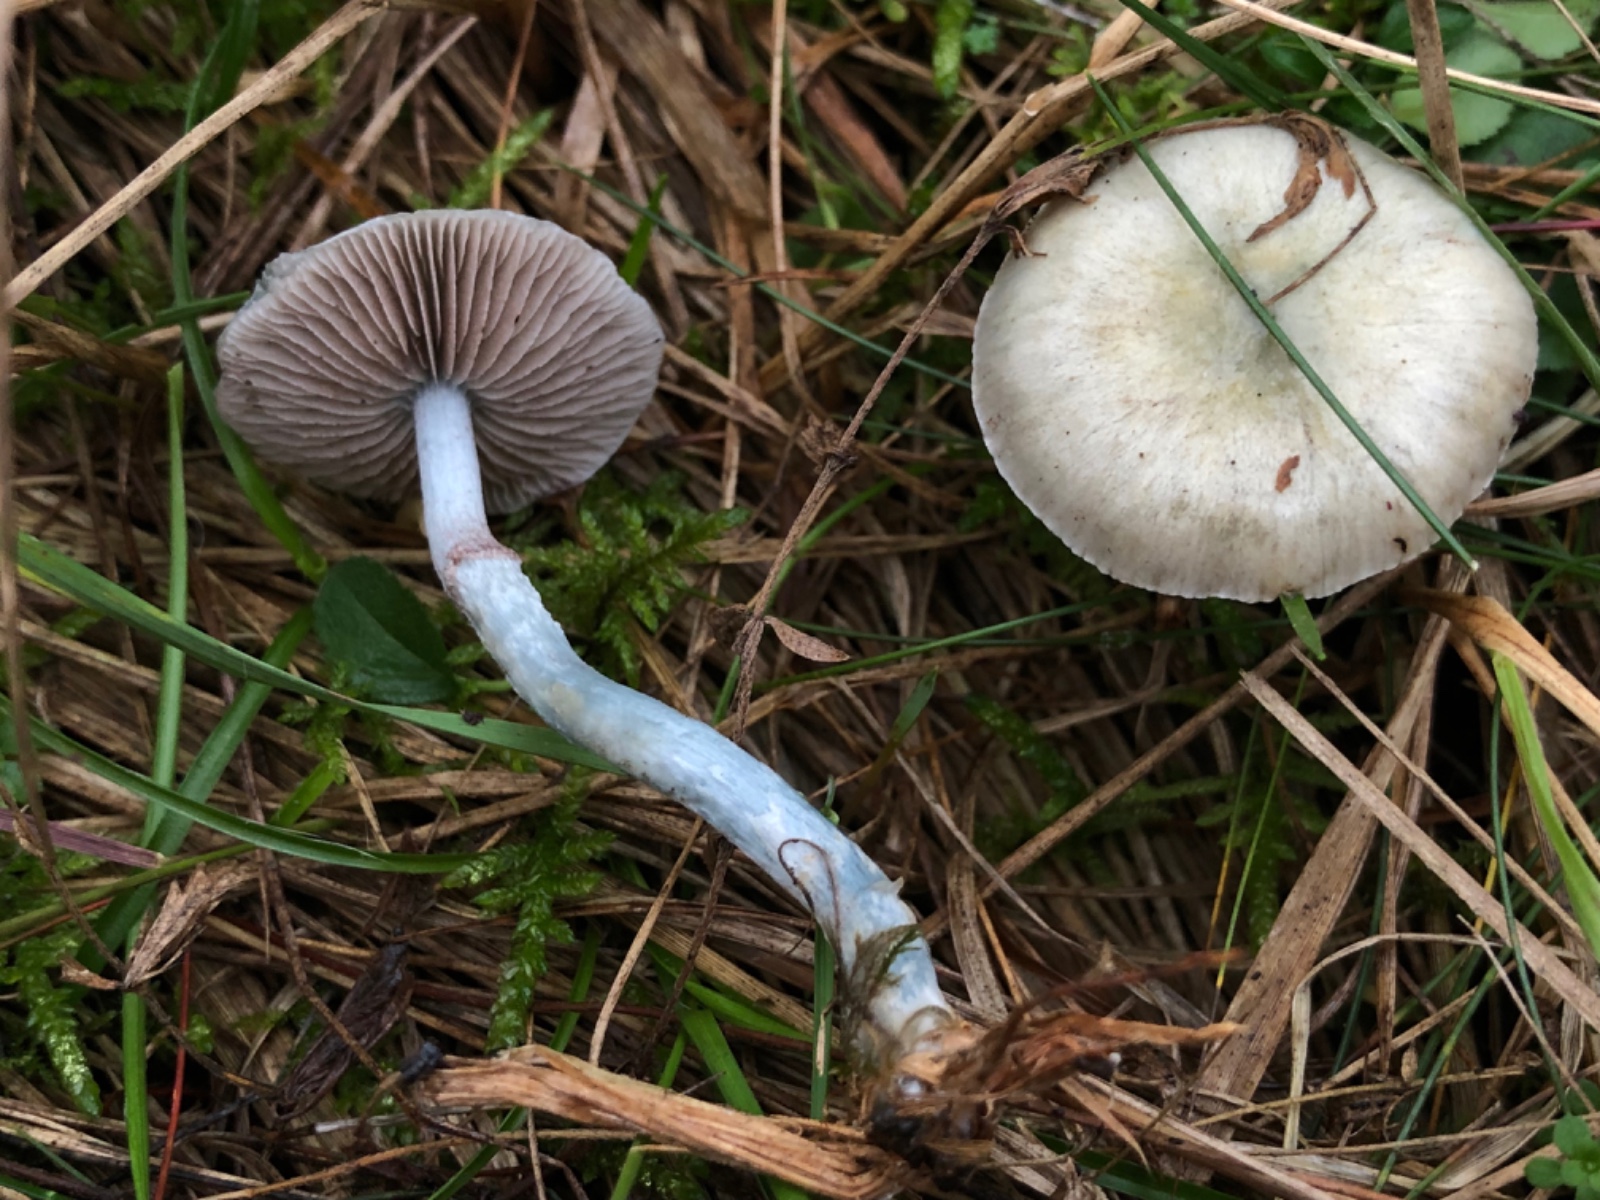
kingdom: Fungi
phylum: Basidiomycota
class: Agaricomycetes
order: Agaricales
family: Strophariaceae
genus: Stropharia
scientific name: Stropharia pseudocyanea
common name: blegblå bredblad
